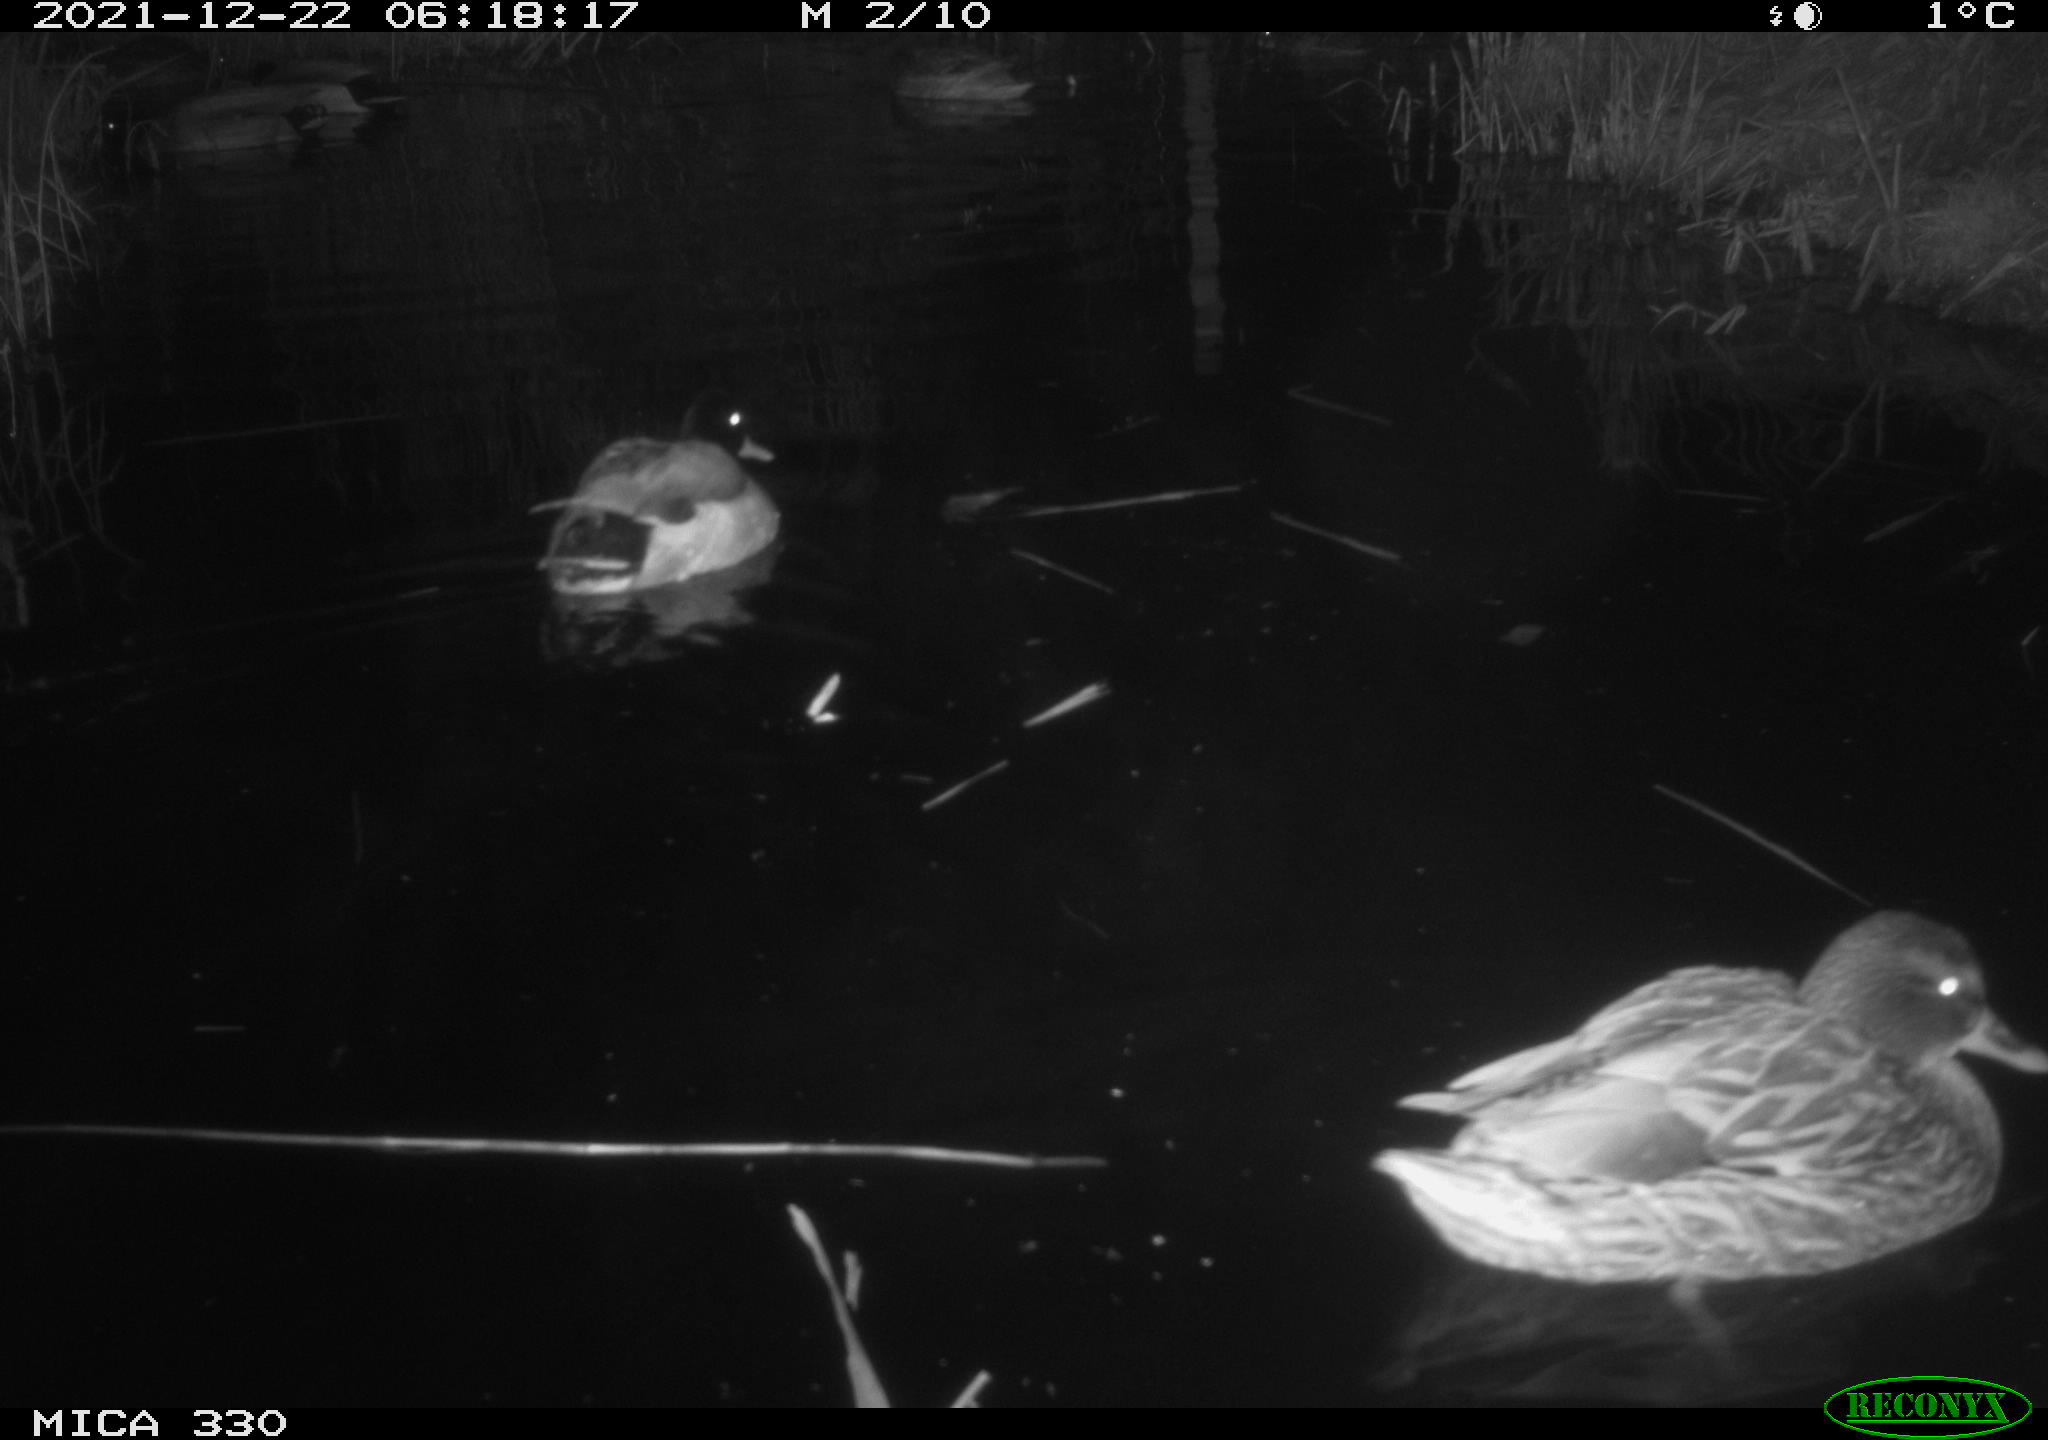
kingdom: Animalia
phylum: Chordata
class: Aves
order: Anseriformes
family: Anatidae
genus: Anas
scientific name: Anas platyrhynchos
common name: Mallard
